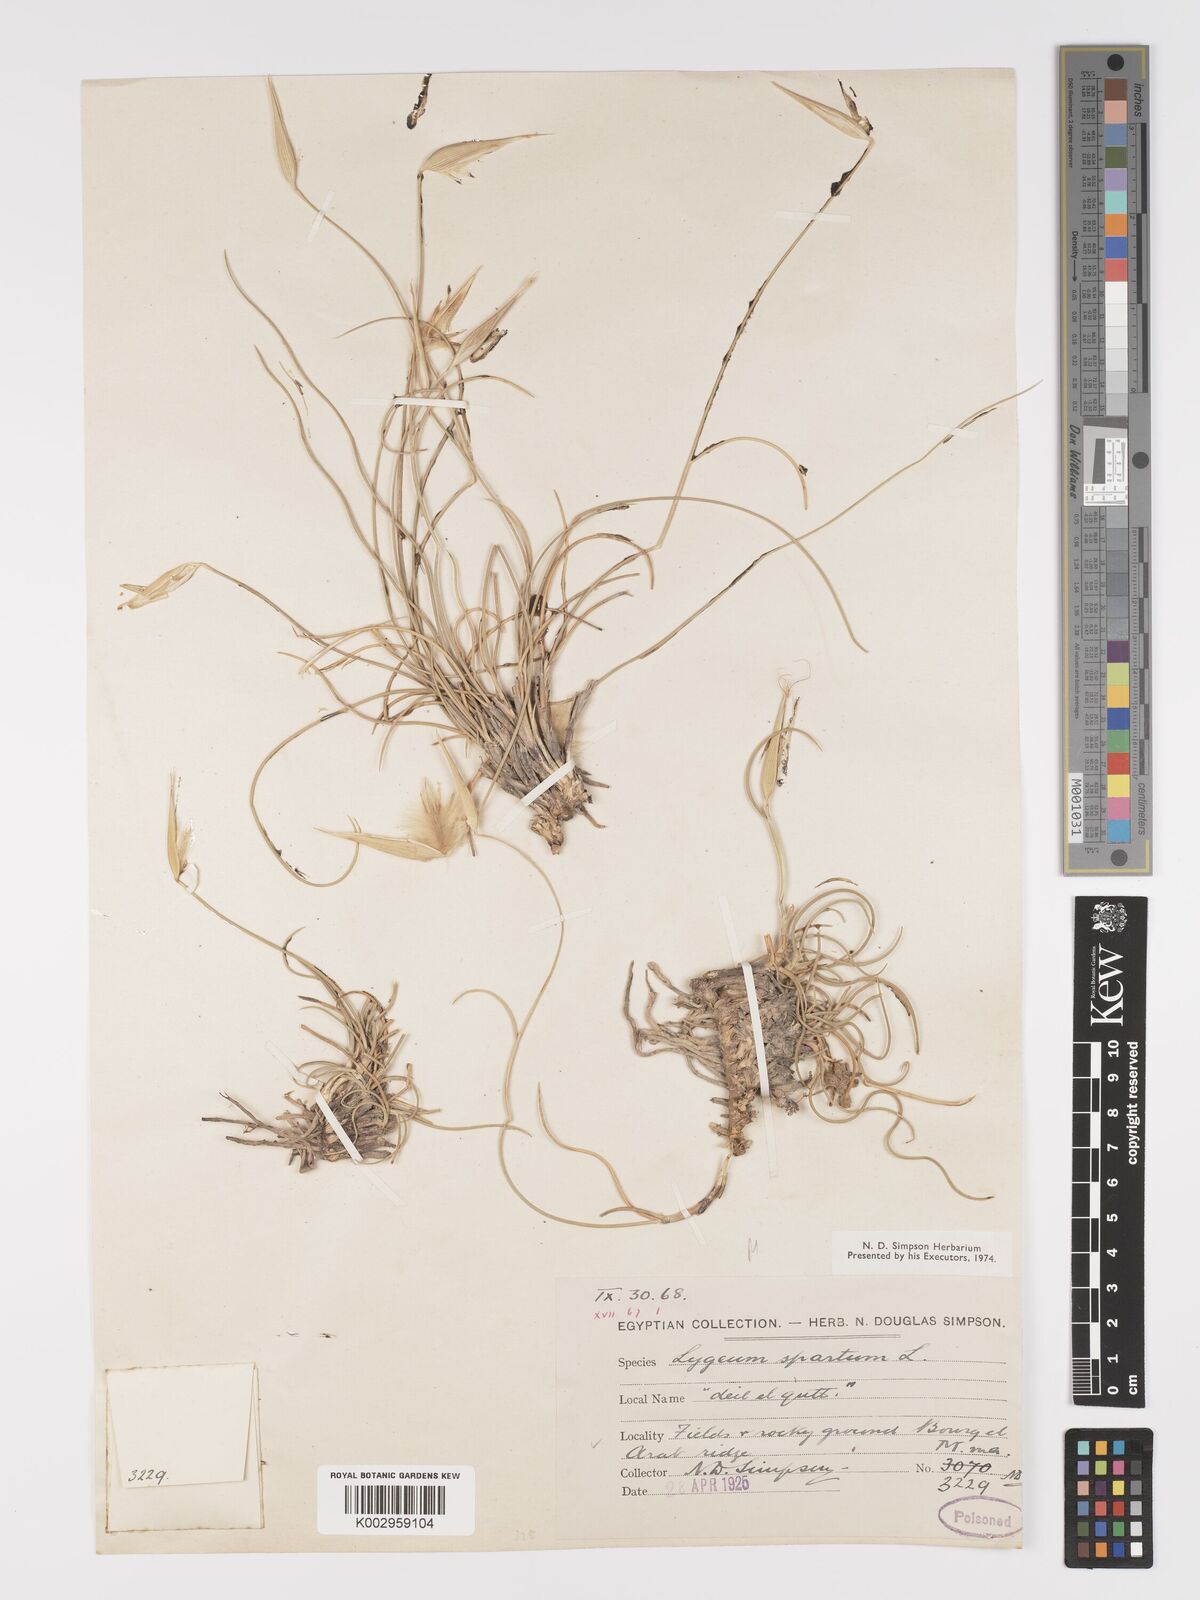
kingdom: Plantae
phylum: Tracheophyta
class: Liliopsida
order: Poales
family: Poaceae
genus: Lygeum
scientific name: Lygeum spartum
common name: Albardine
